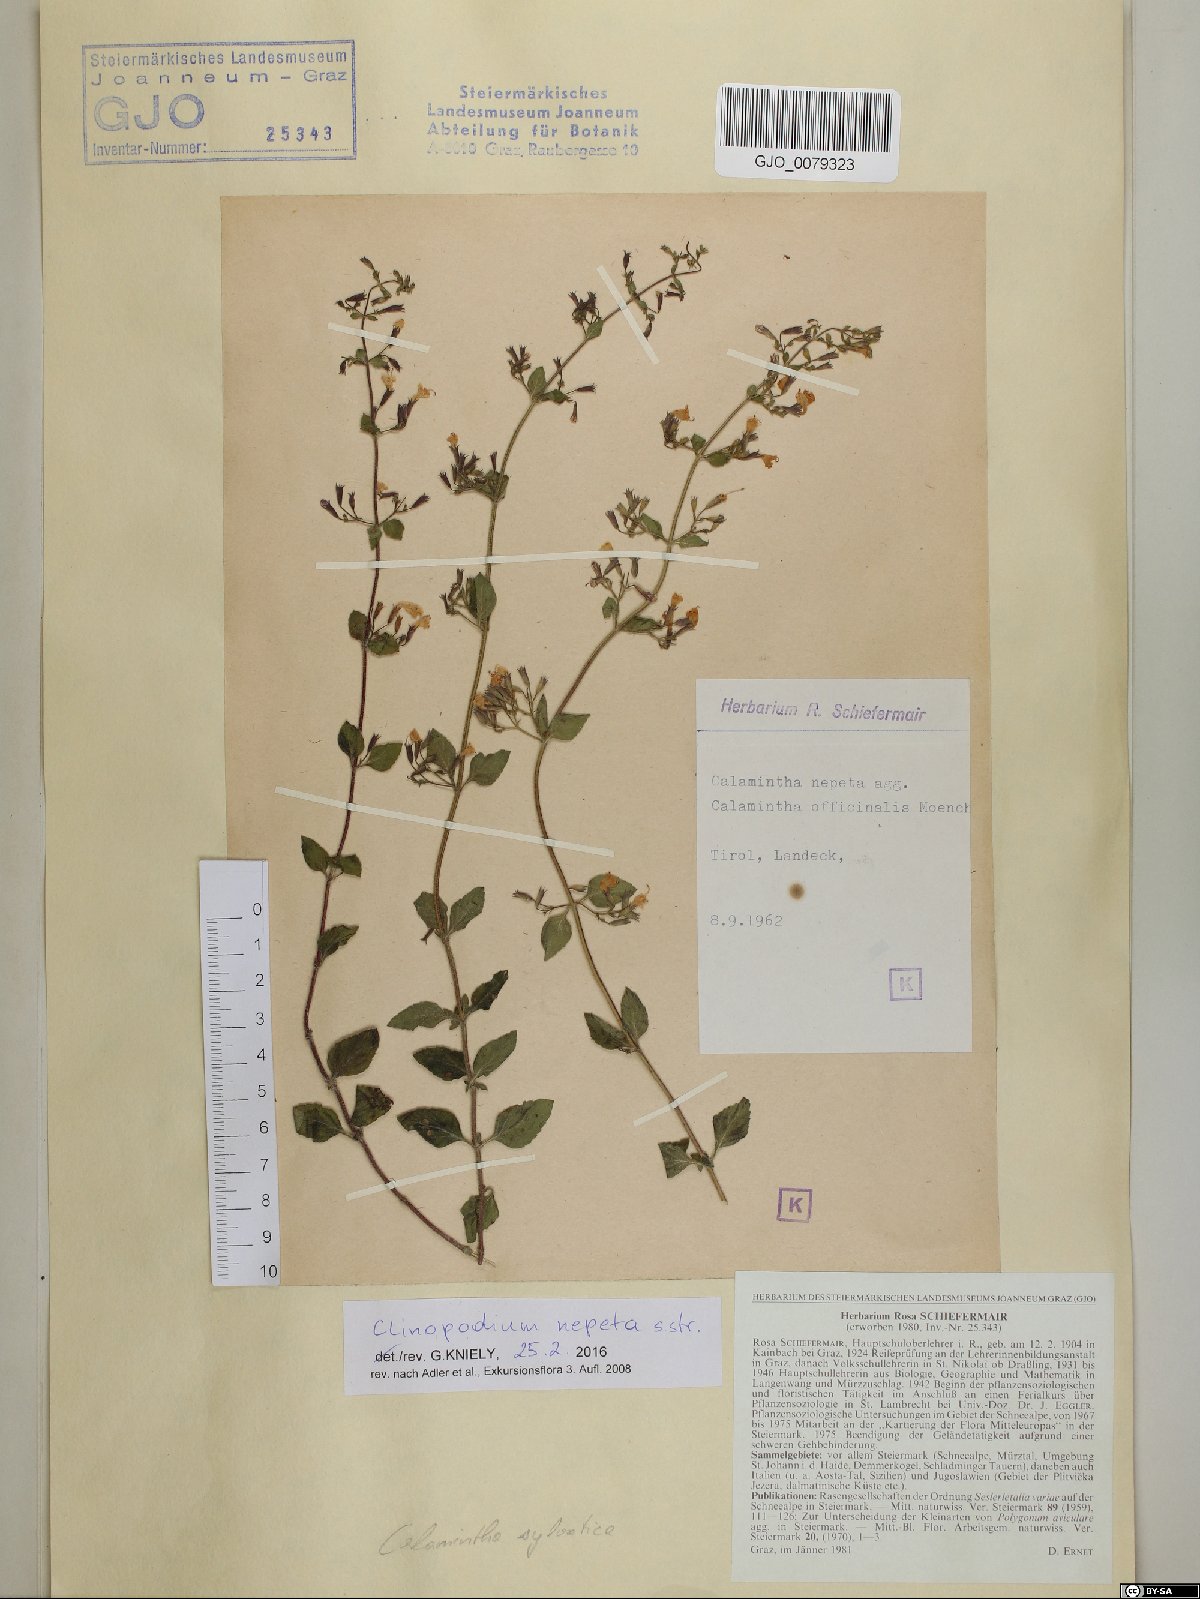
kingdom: Plantae
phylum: Tracheophyta
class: Magnoliopsida
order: Lamiales
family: Lamiaceae
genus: Clinopodium
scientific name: Clinopodium nepeta
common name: Lesser calamint
